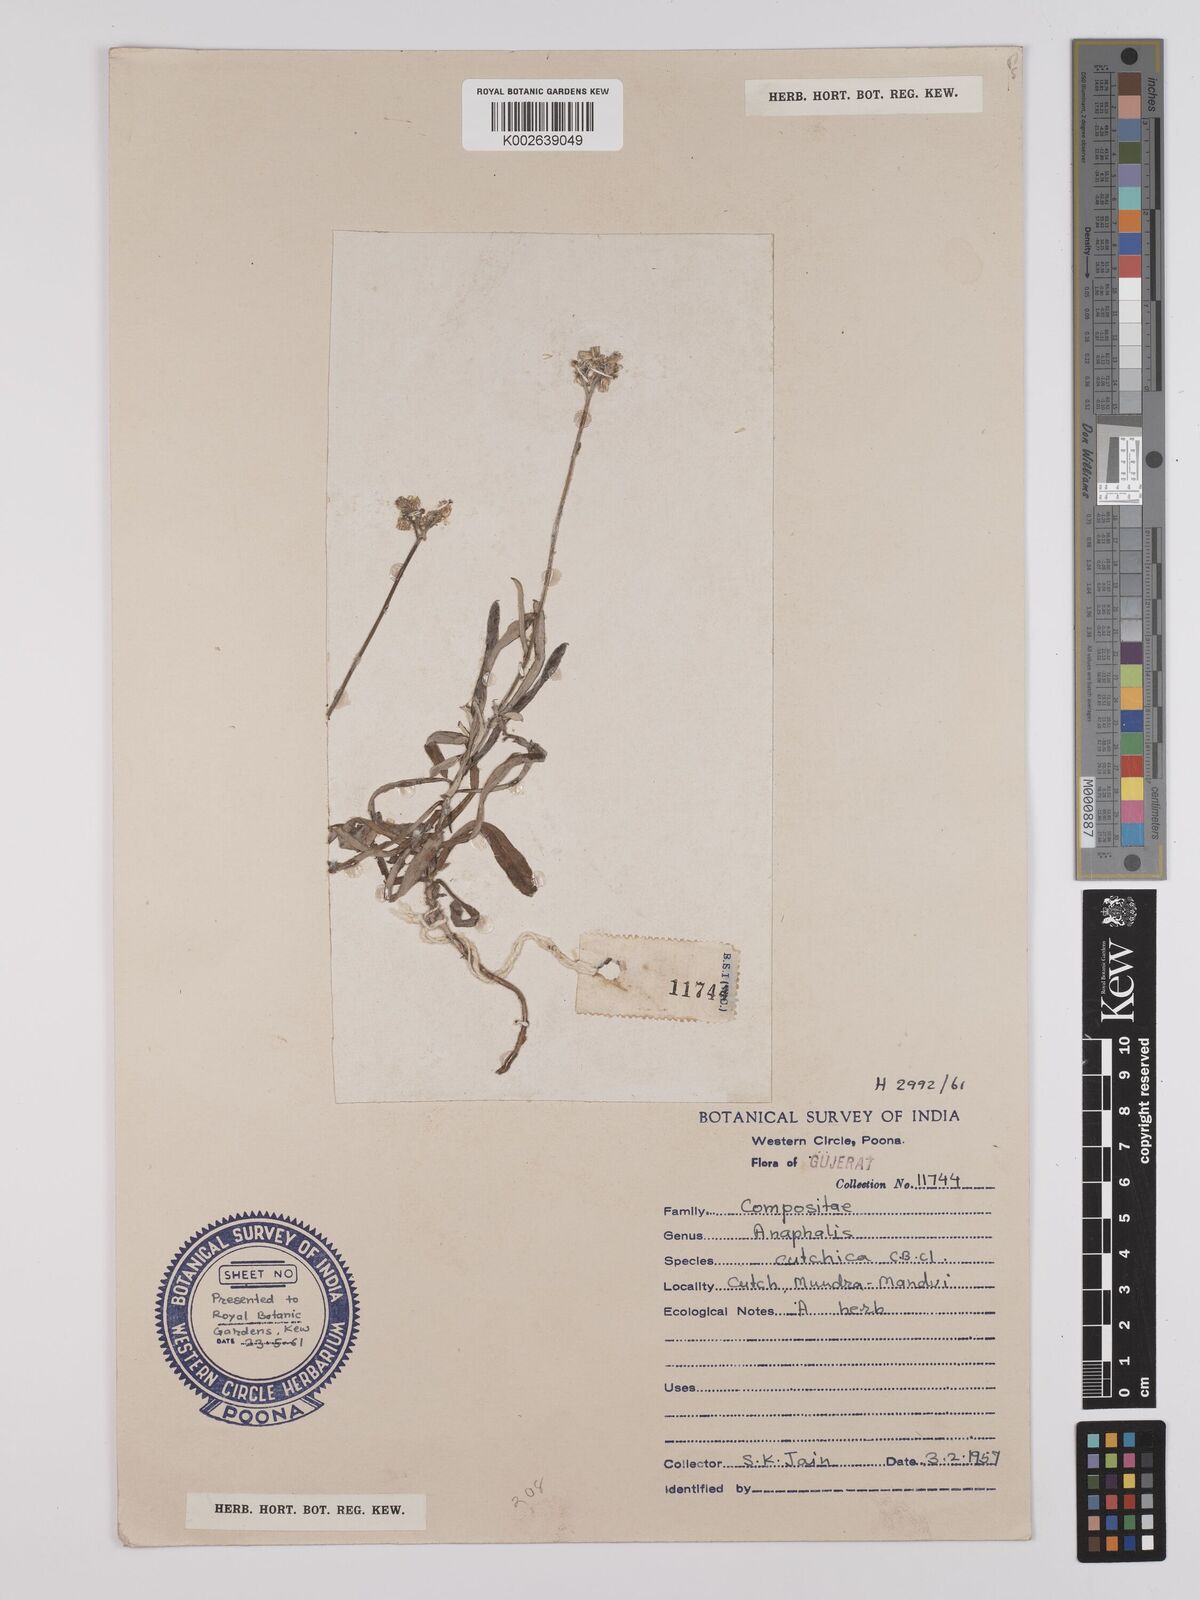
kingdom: Plantae
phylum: Tracheophyta
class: Magnoliopsida
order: Asterales
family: Asteraceae
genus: Helichrysum
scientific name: Helichrysum cutchicum
